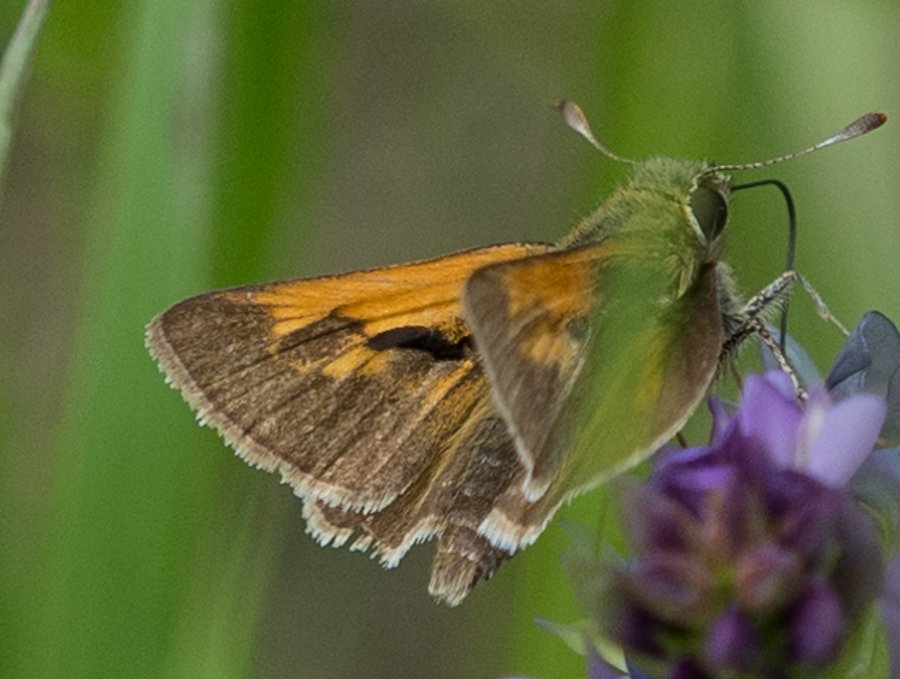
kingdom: Animalia
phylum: Arthropoda
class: Insecta
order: Lepidoptera
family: Hesperiidae
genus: Polites
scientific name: Polites
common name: Long Dash Skipper
